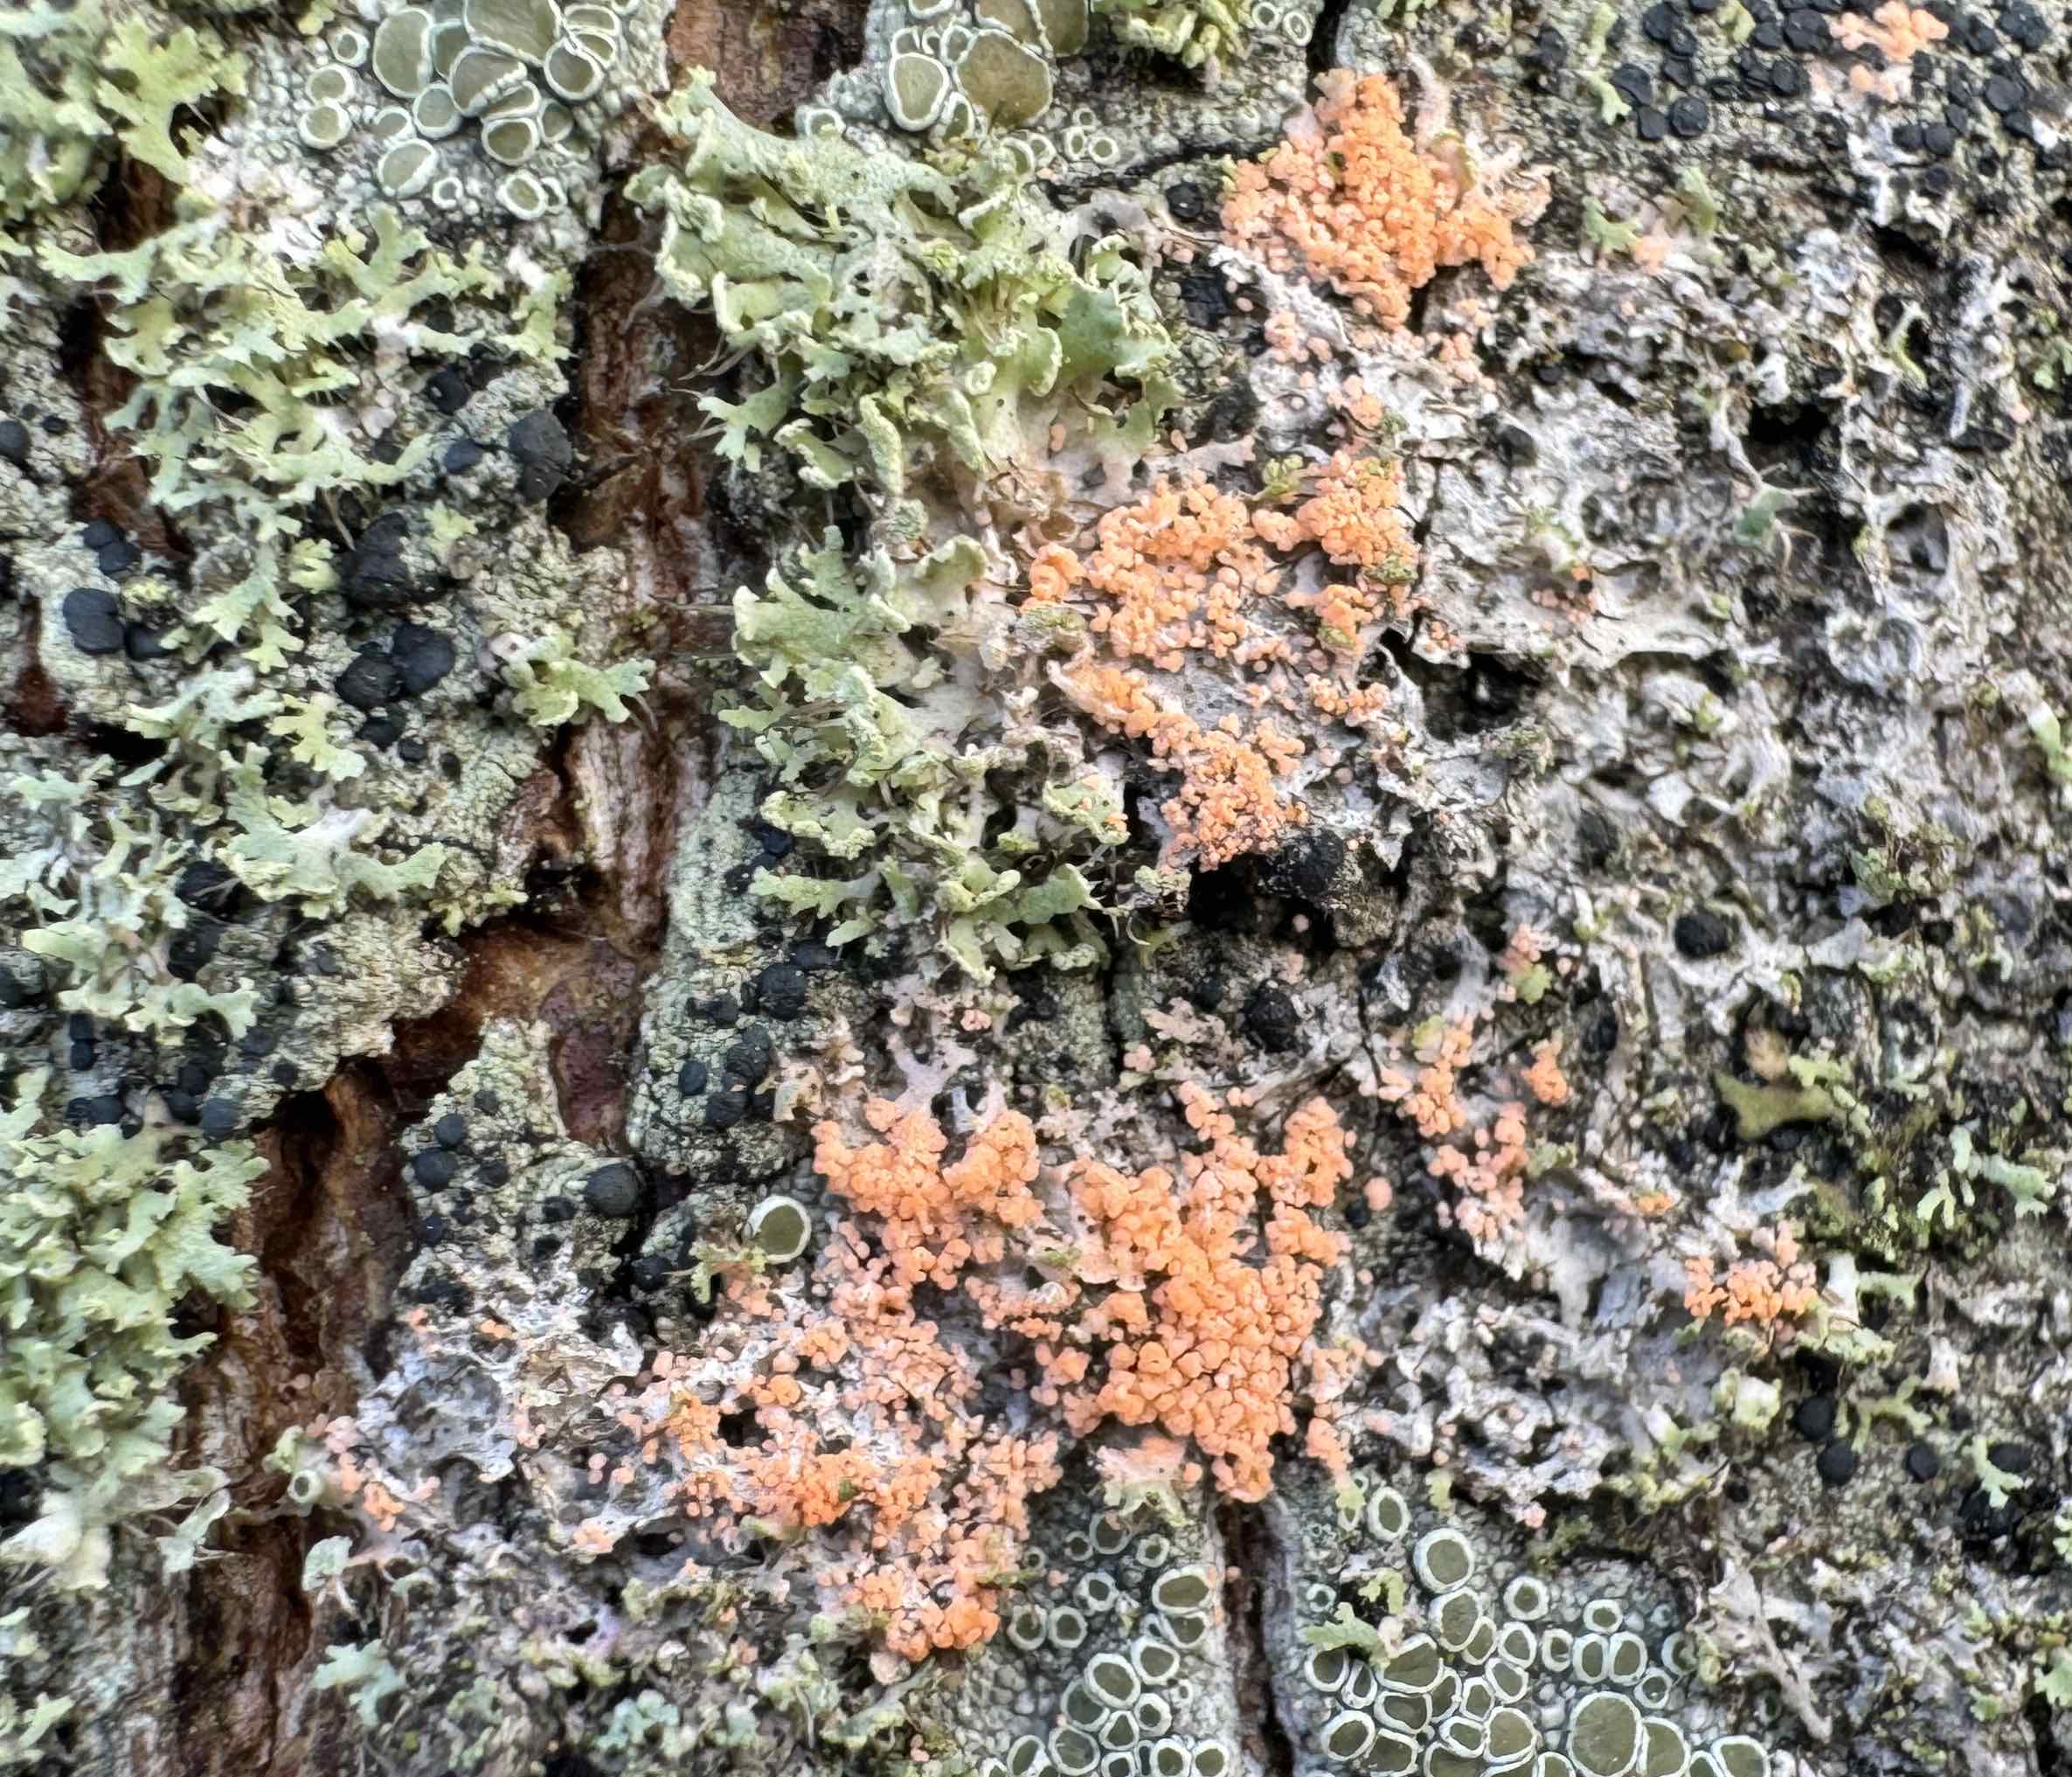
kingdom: Fungi
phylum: Basidiomycota
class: Agaricomycetes
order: Corticiales
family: Corticiaceae
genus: Erythricium
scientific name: Erythricium aurantiacum
